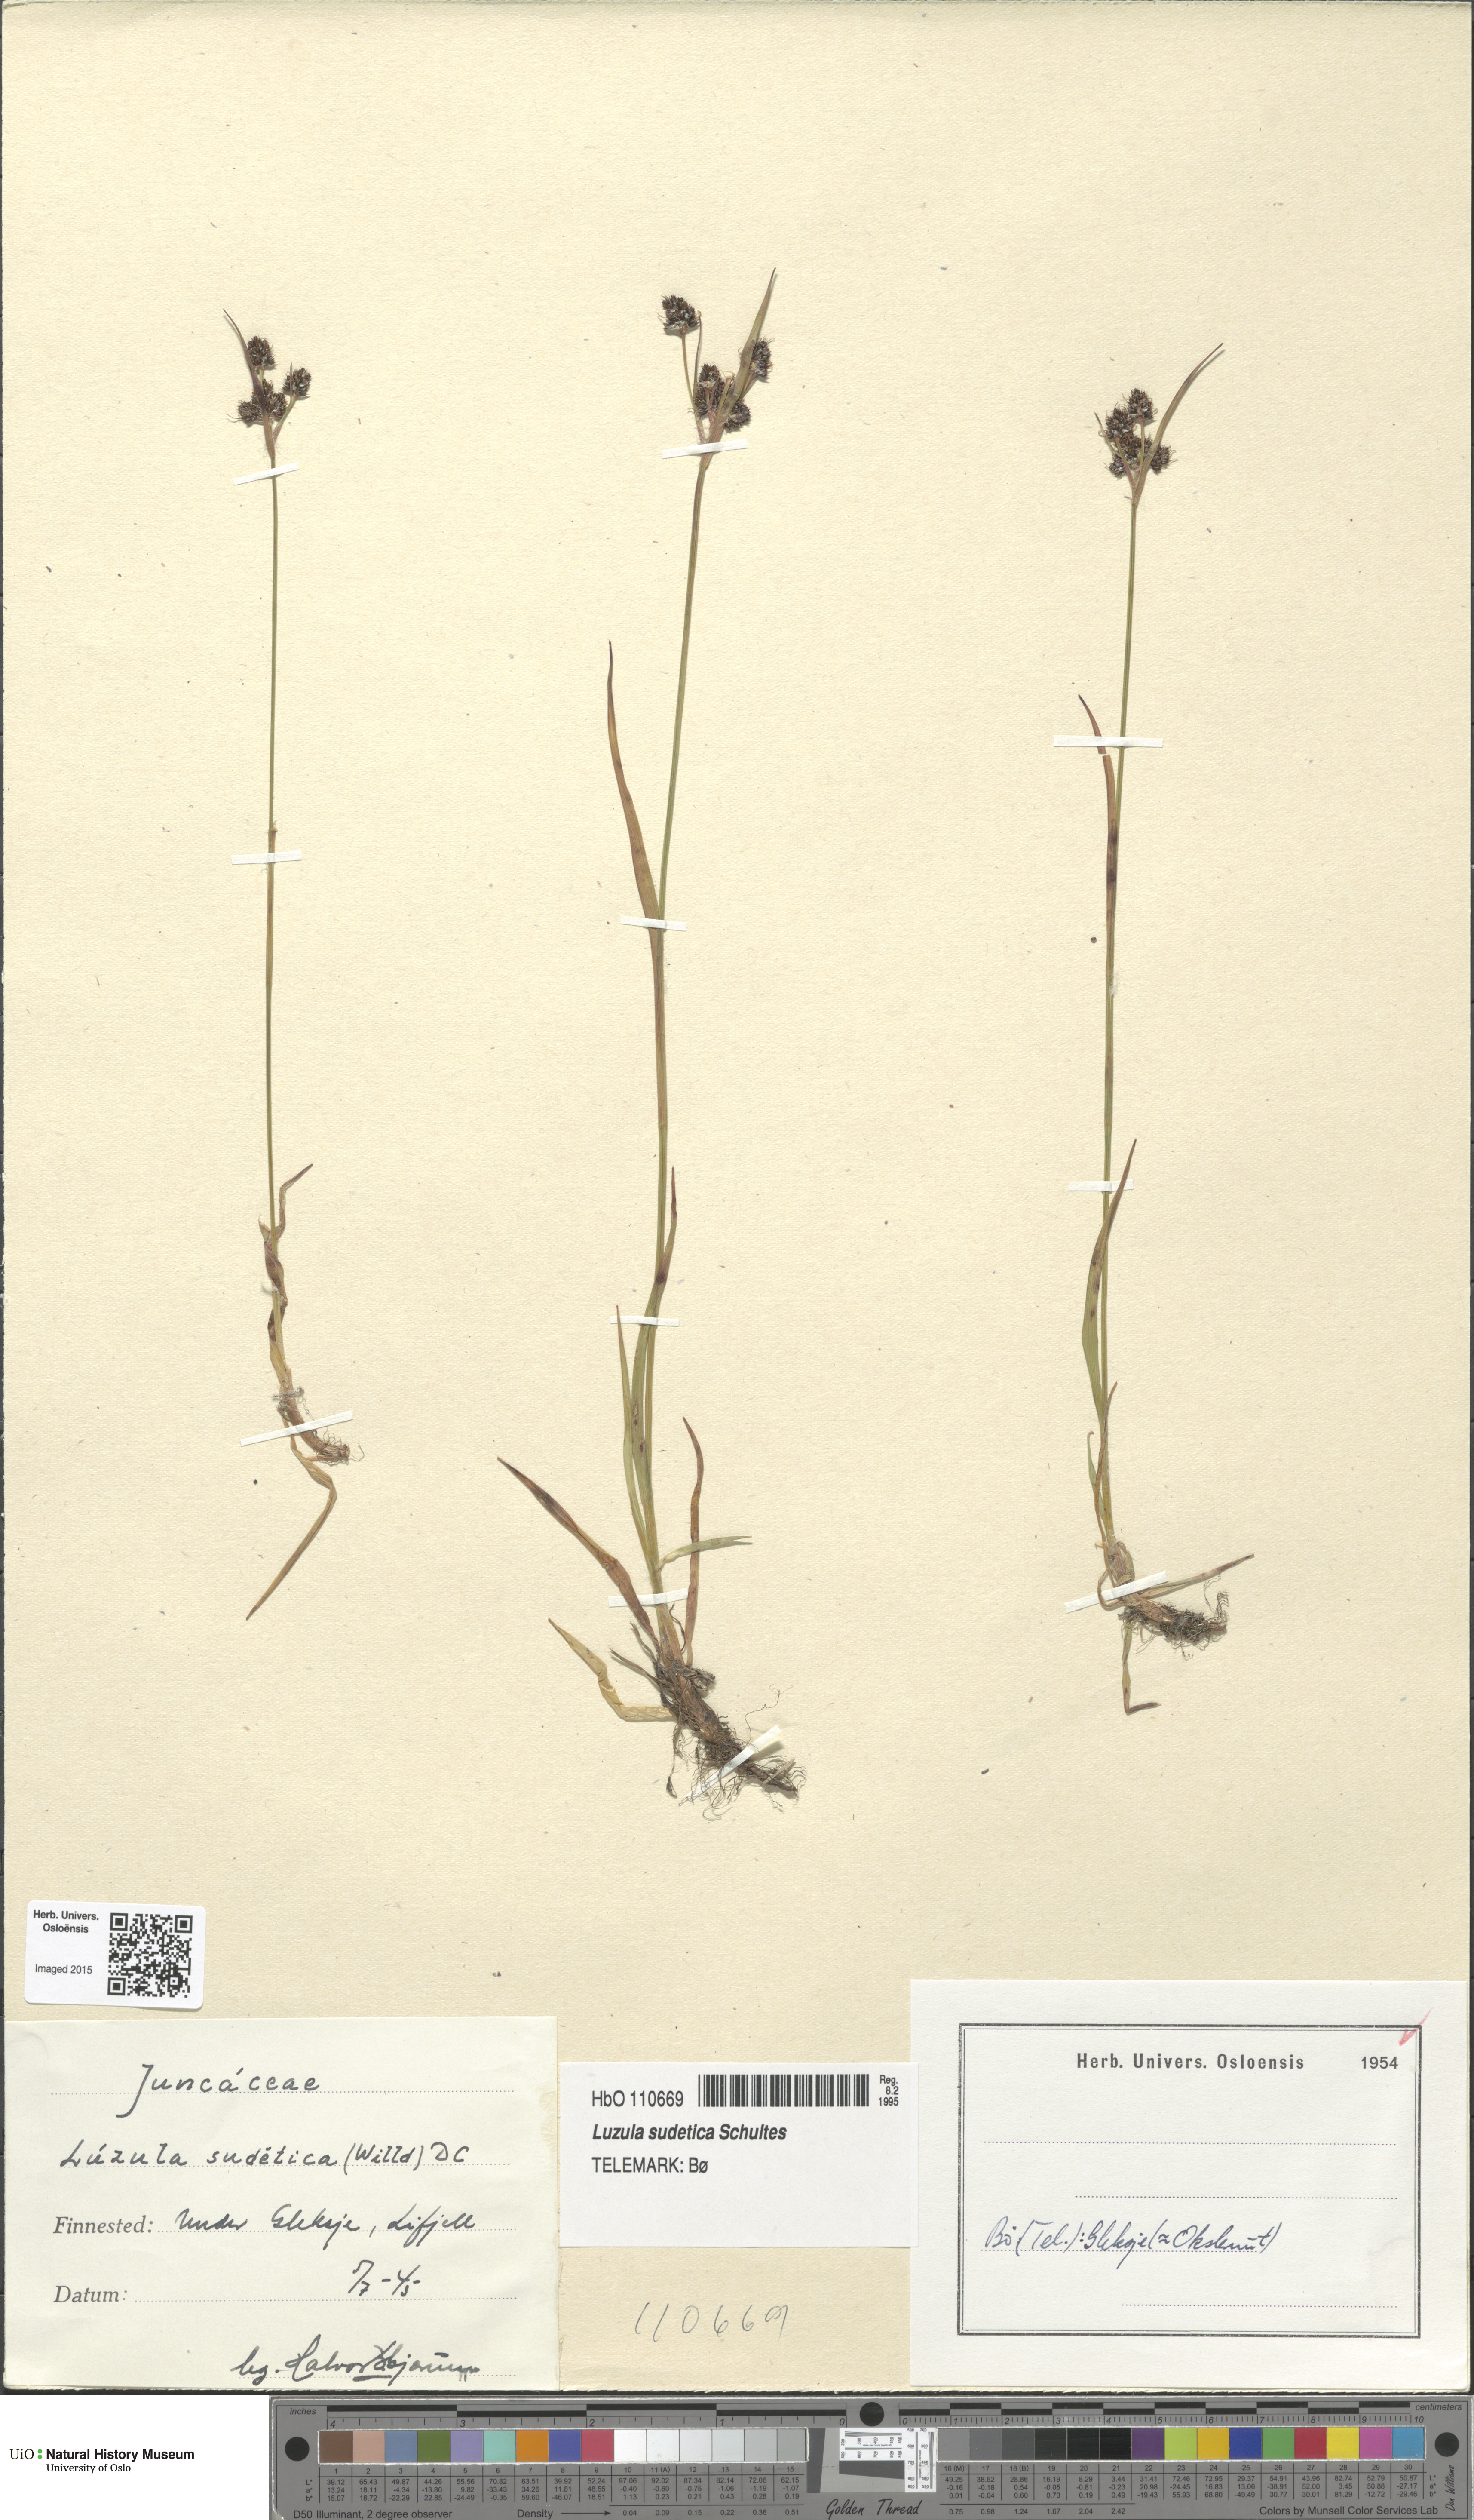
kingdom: Plantae
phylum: Tracheophyta
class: Liliopsida
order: Poales
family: Juncaceae
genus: Luzula
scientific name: Luzula sudetica
